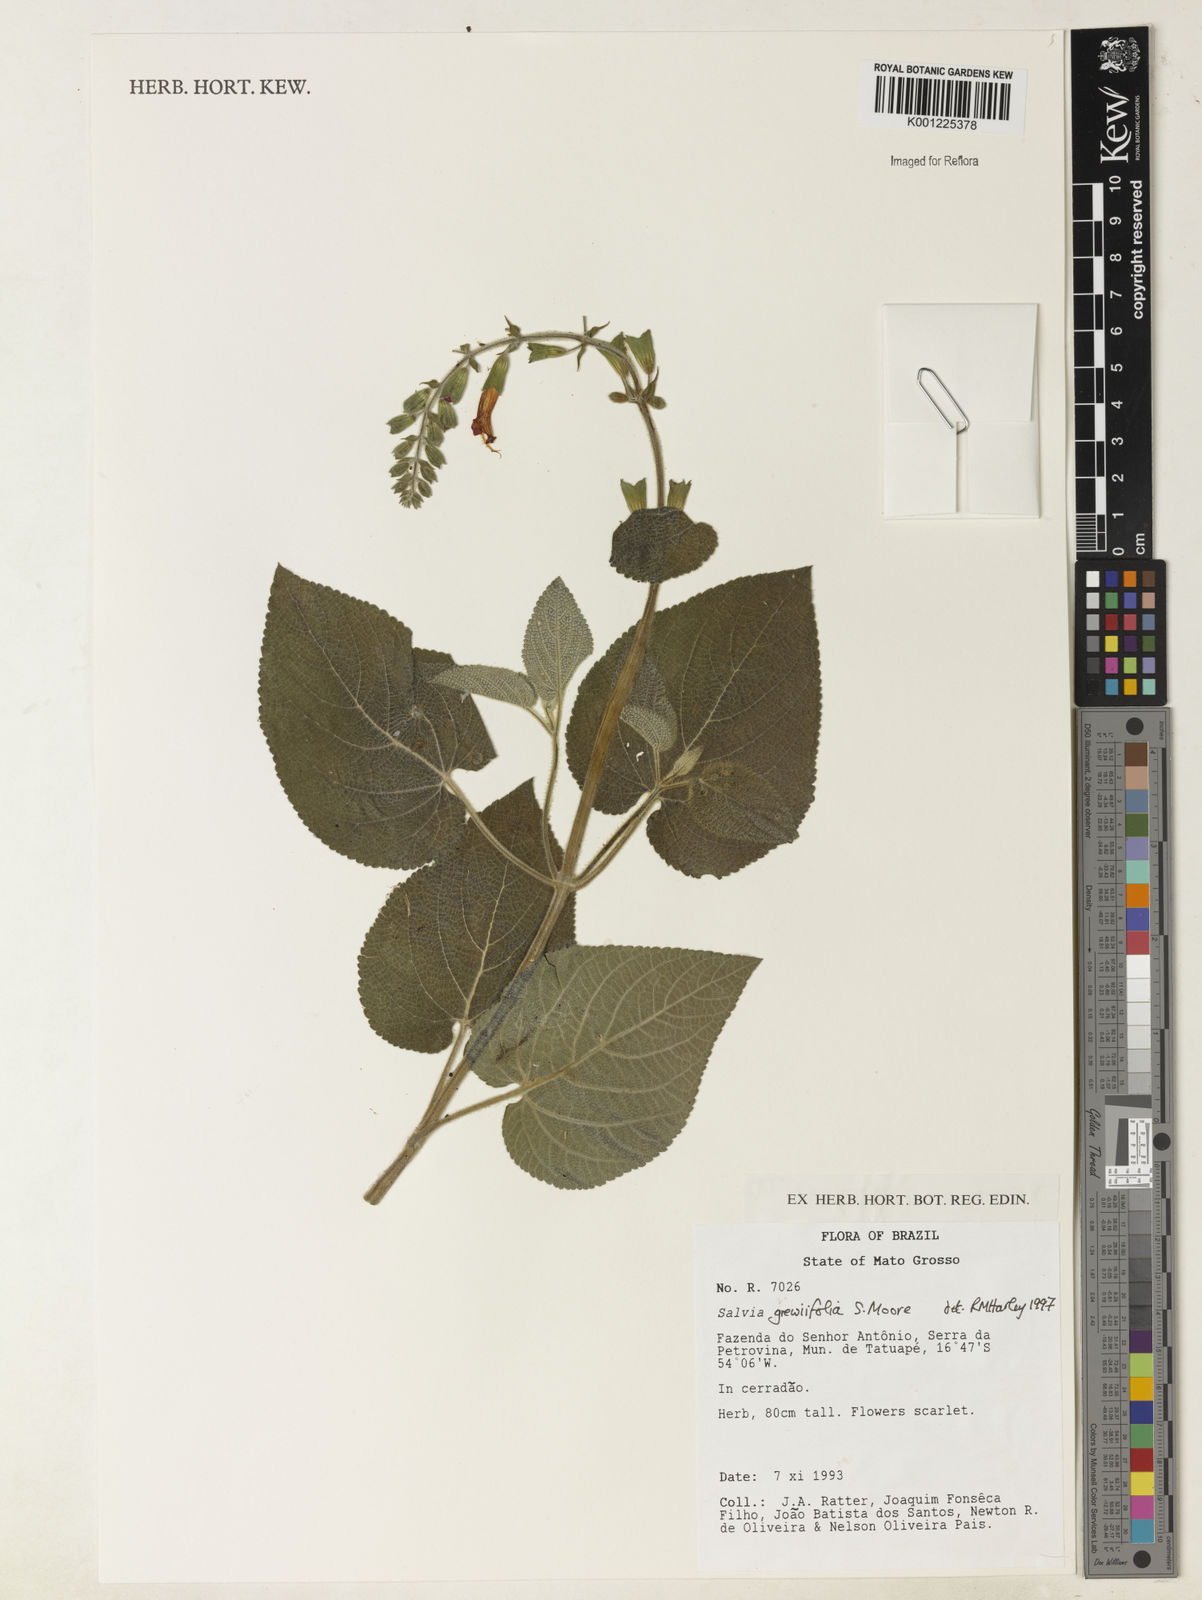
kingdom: Plantae
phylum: Tracheophyta
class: Magnoliopsida
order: Lamiales
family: Lamiaceae
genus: Salvia
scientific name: Salvia grewiifolia
